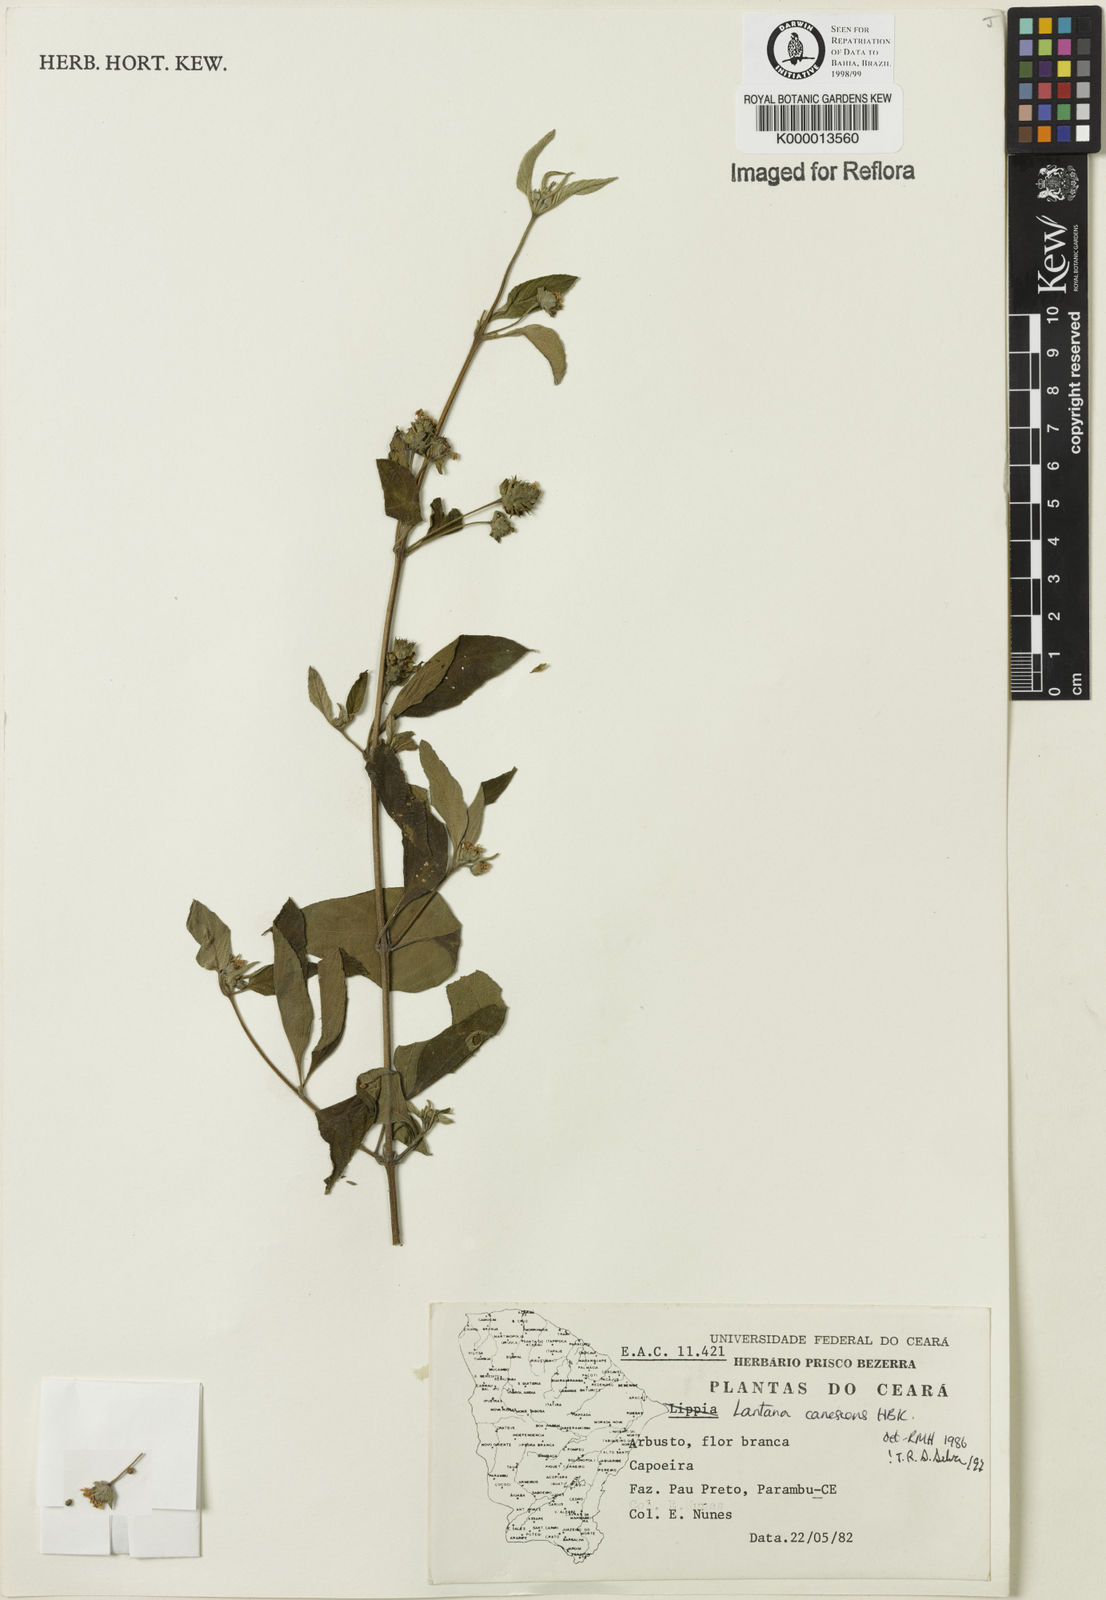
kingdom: Plantae
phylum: Tracheophyta
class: Magnoliopsida
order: Lamiales
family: Verbenaceae
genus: Lantana
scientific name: Lantana canescens
